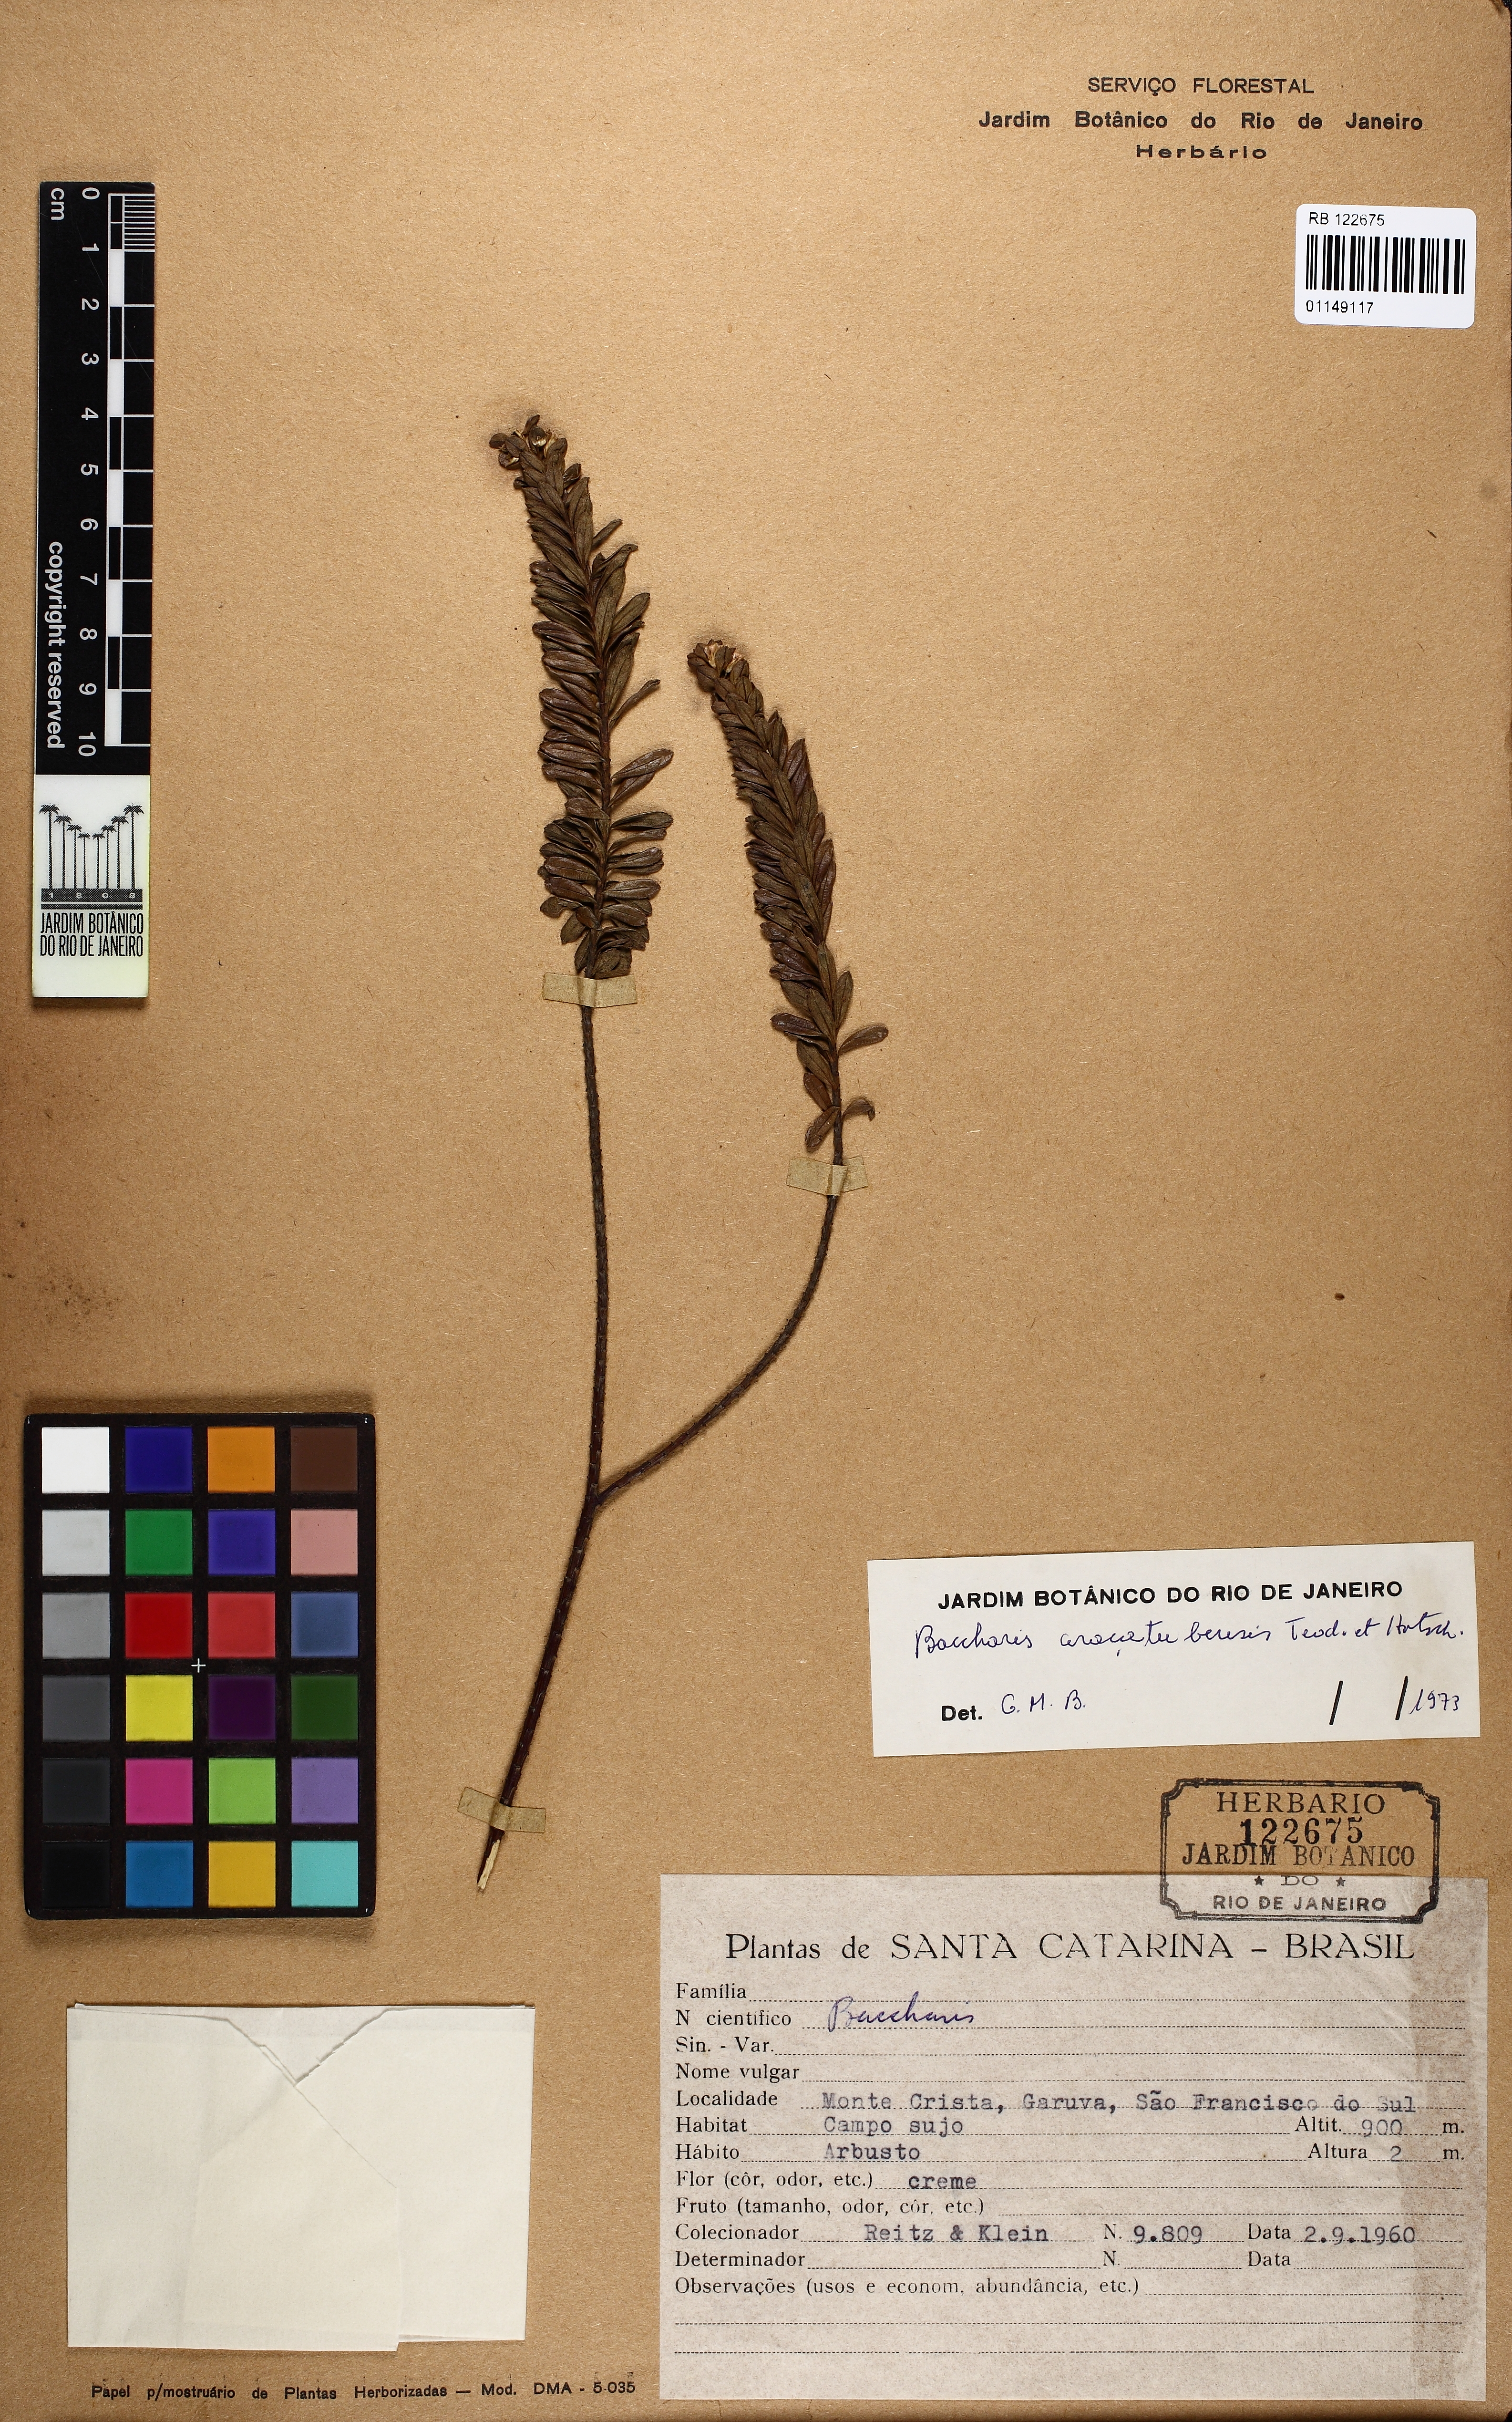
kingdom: Plantae
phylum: Tracheophyta
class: Magnoliopsida
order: Asterales
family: Asteraceae
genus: Baccharis
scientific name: Baccharis aracatubensis
